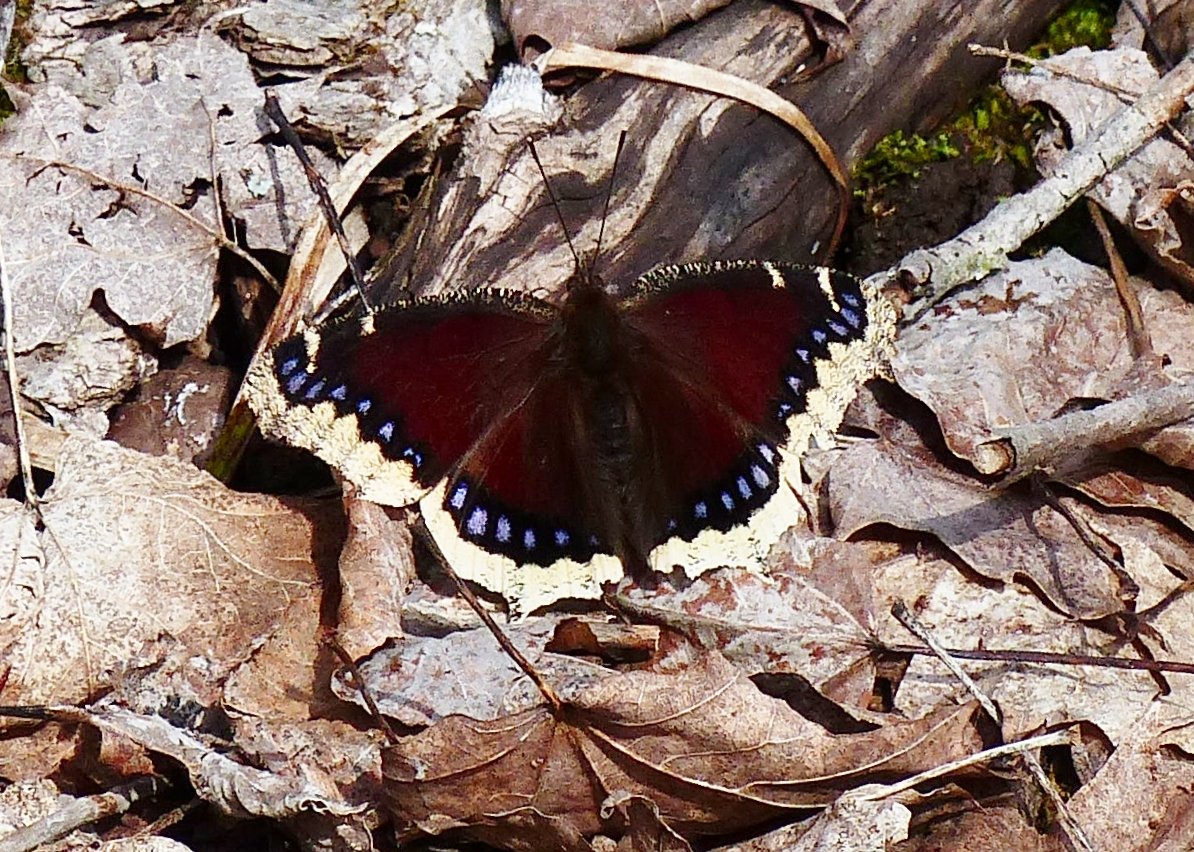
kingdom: Animalia
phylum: Arthropoda
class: Insecta
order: Lepidoptera
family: Nymphalidae
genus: Nymphalis
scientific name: Nymphalis antiopa
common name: Mourning Cloak
